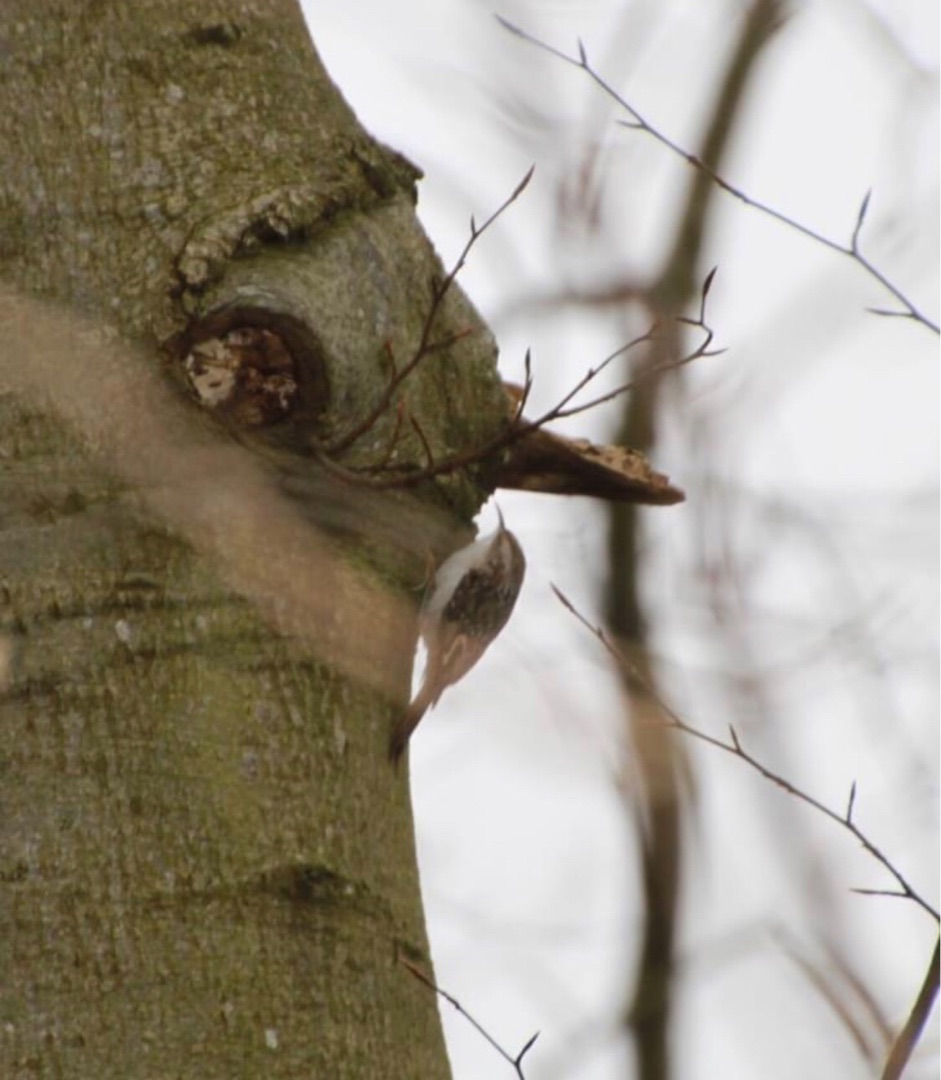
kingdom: Animalia
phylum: Chordata
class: Aves
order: Passeriformes
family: Certhiidae
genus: Certhia
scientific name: Certhia familiaris
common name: Træløber
